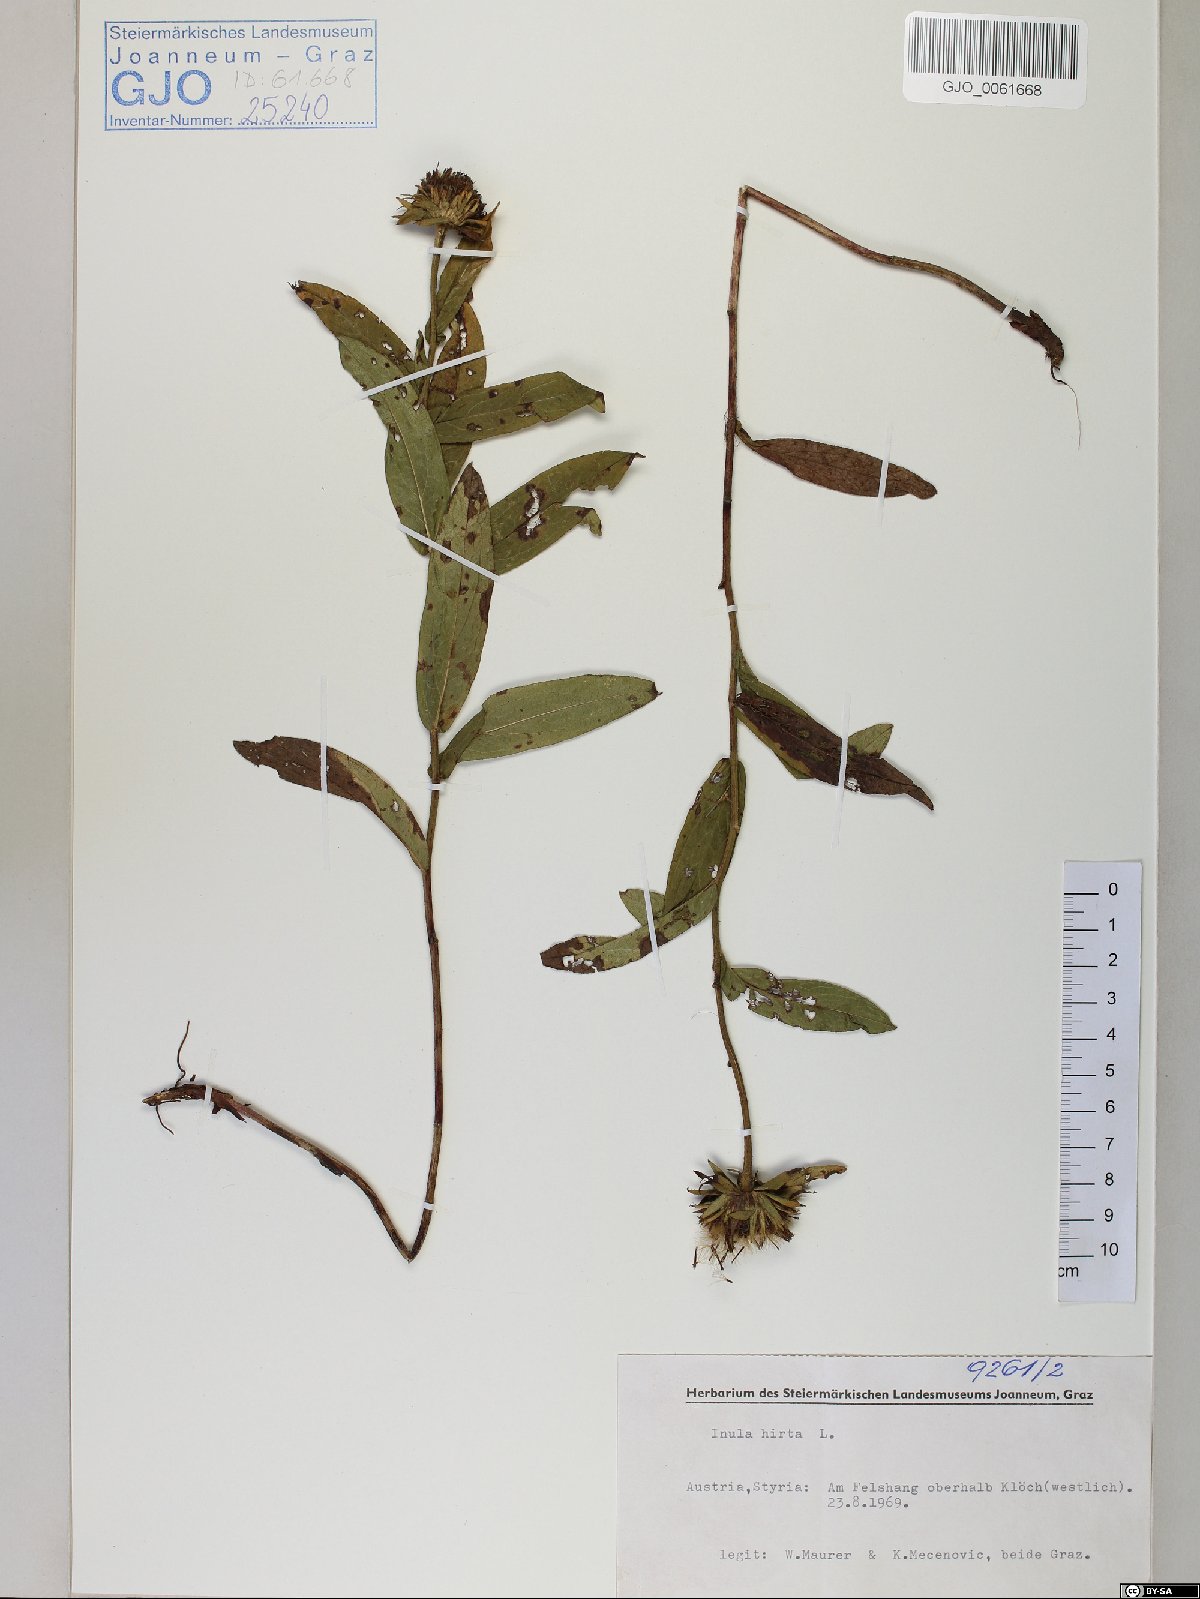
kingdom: Plantae
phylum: Tracheophyta
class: Magnoliopsida
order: Asterales
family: Asteraceae
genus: Pentanema
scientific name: Pentanema hirtum
